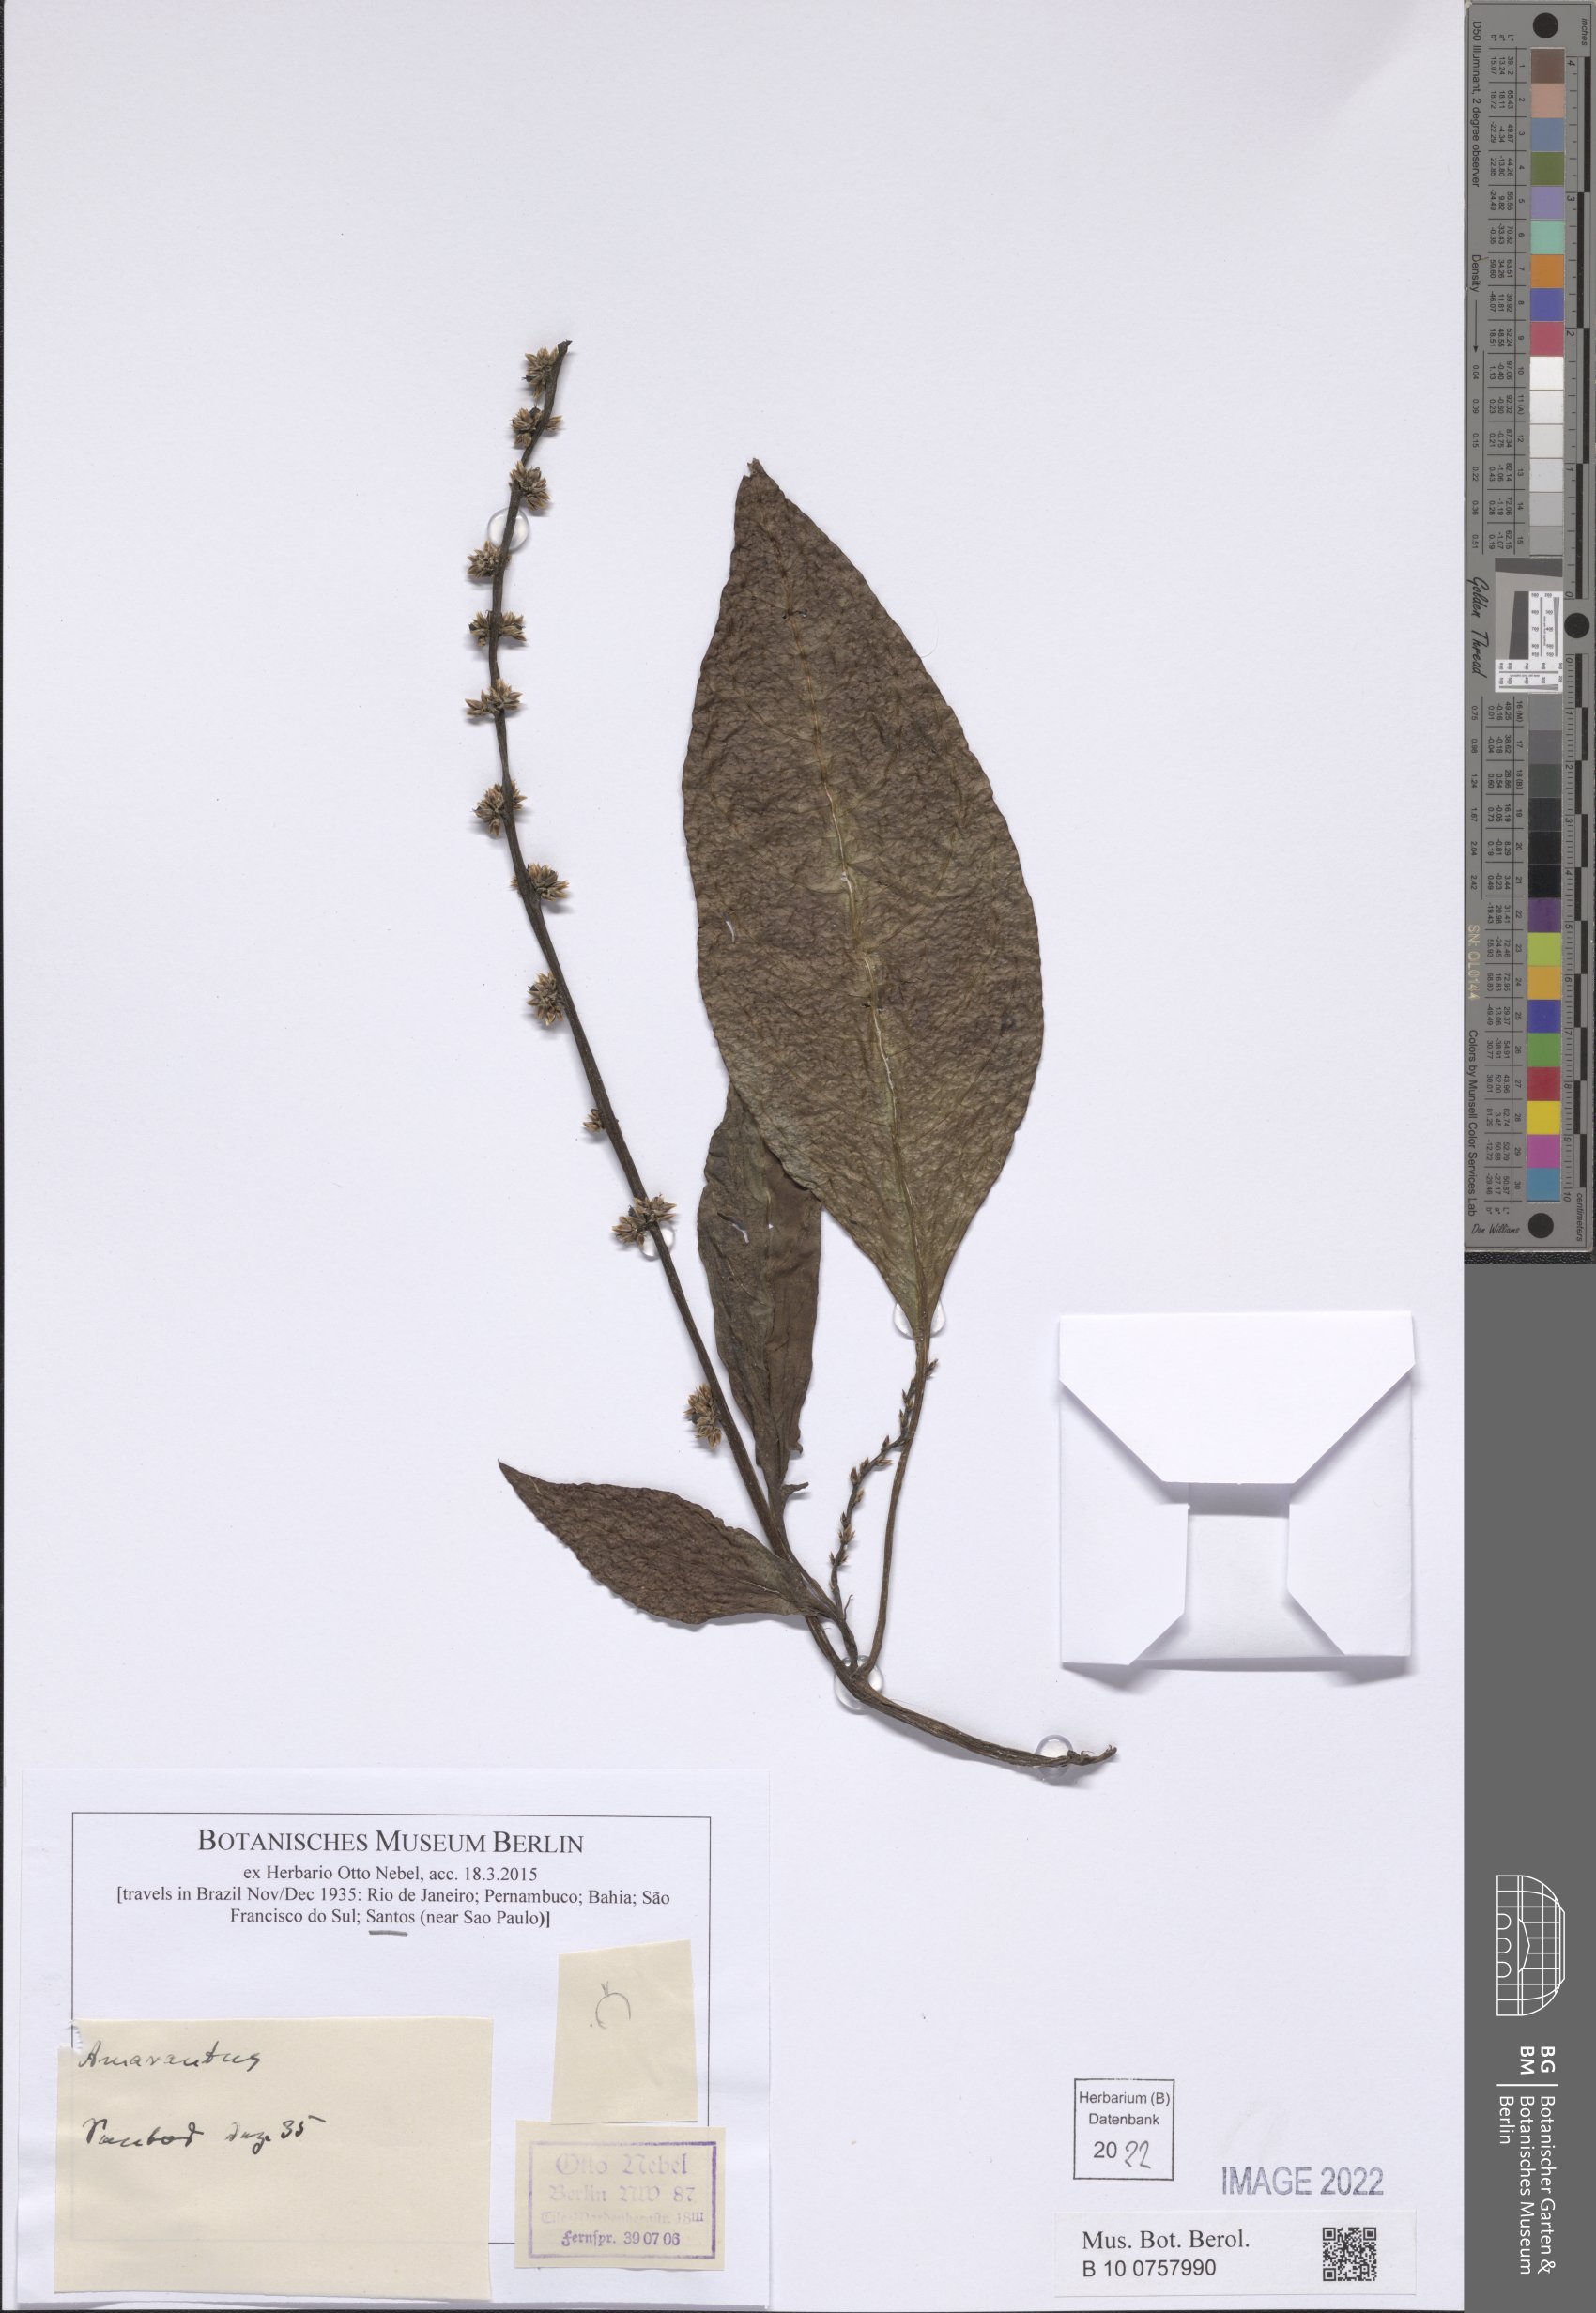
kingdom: Plantae
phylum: Tracheophyta
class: Magnoliopsida
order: Caryophyllales
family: Amaranthaceae
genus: Amaranthus
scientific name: Amaranthus
